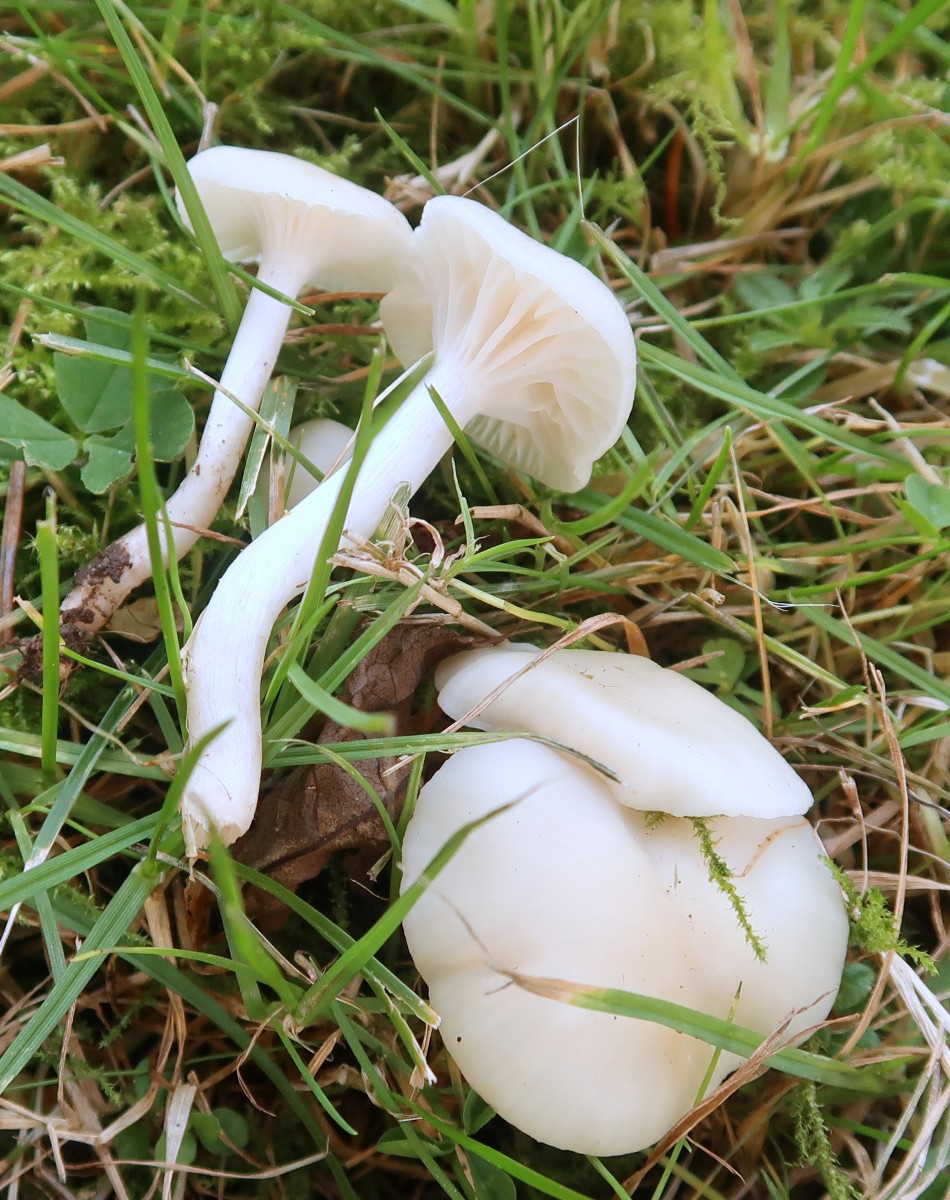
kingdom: Fungi
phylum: Basidiomycota
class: Agaricomycetes
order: Agaricales
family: Hygrophoraceae
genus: Cuphophyllus
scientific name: Cuphophyllus virgineus
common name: snehvid vokshat
